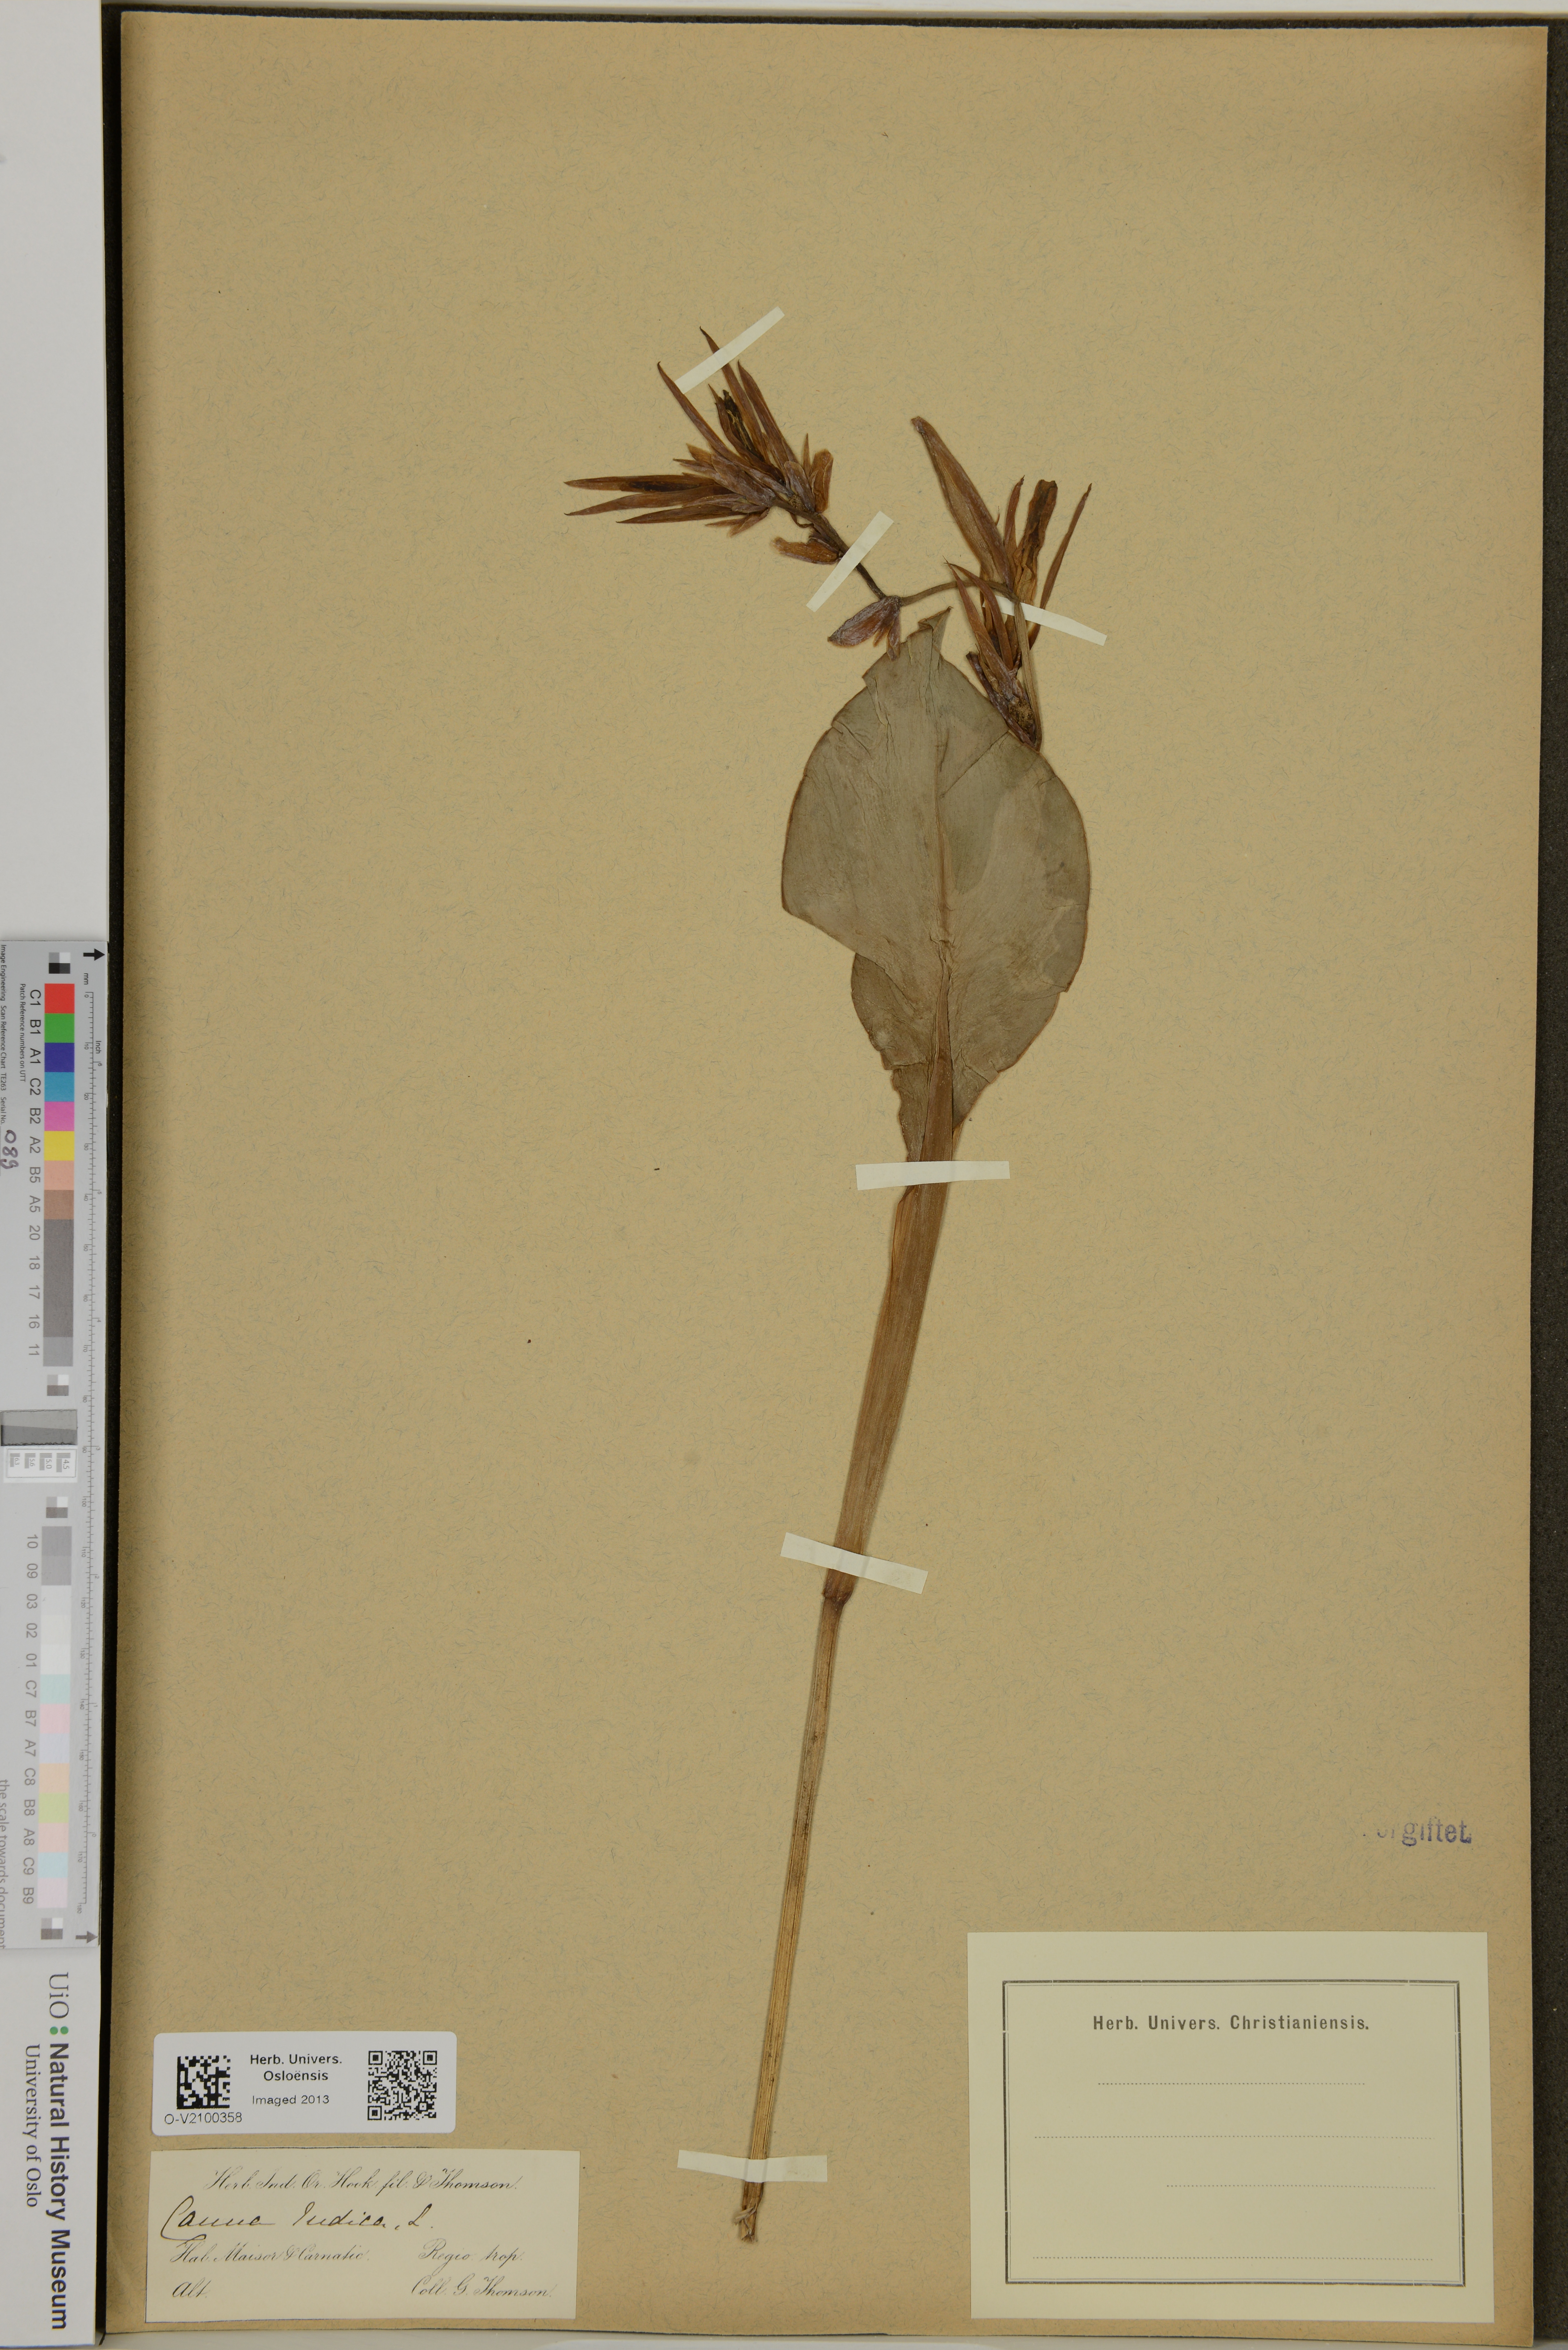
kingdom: Plantae
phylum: Tracheophyta
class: Liliopsida
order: Zingiberales
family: Cannaceae
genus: Canna
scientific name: Canna indica
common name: Indian shot
